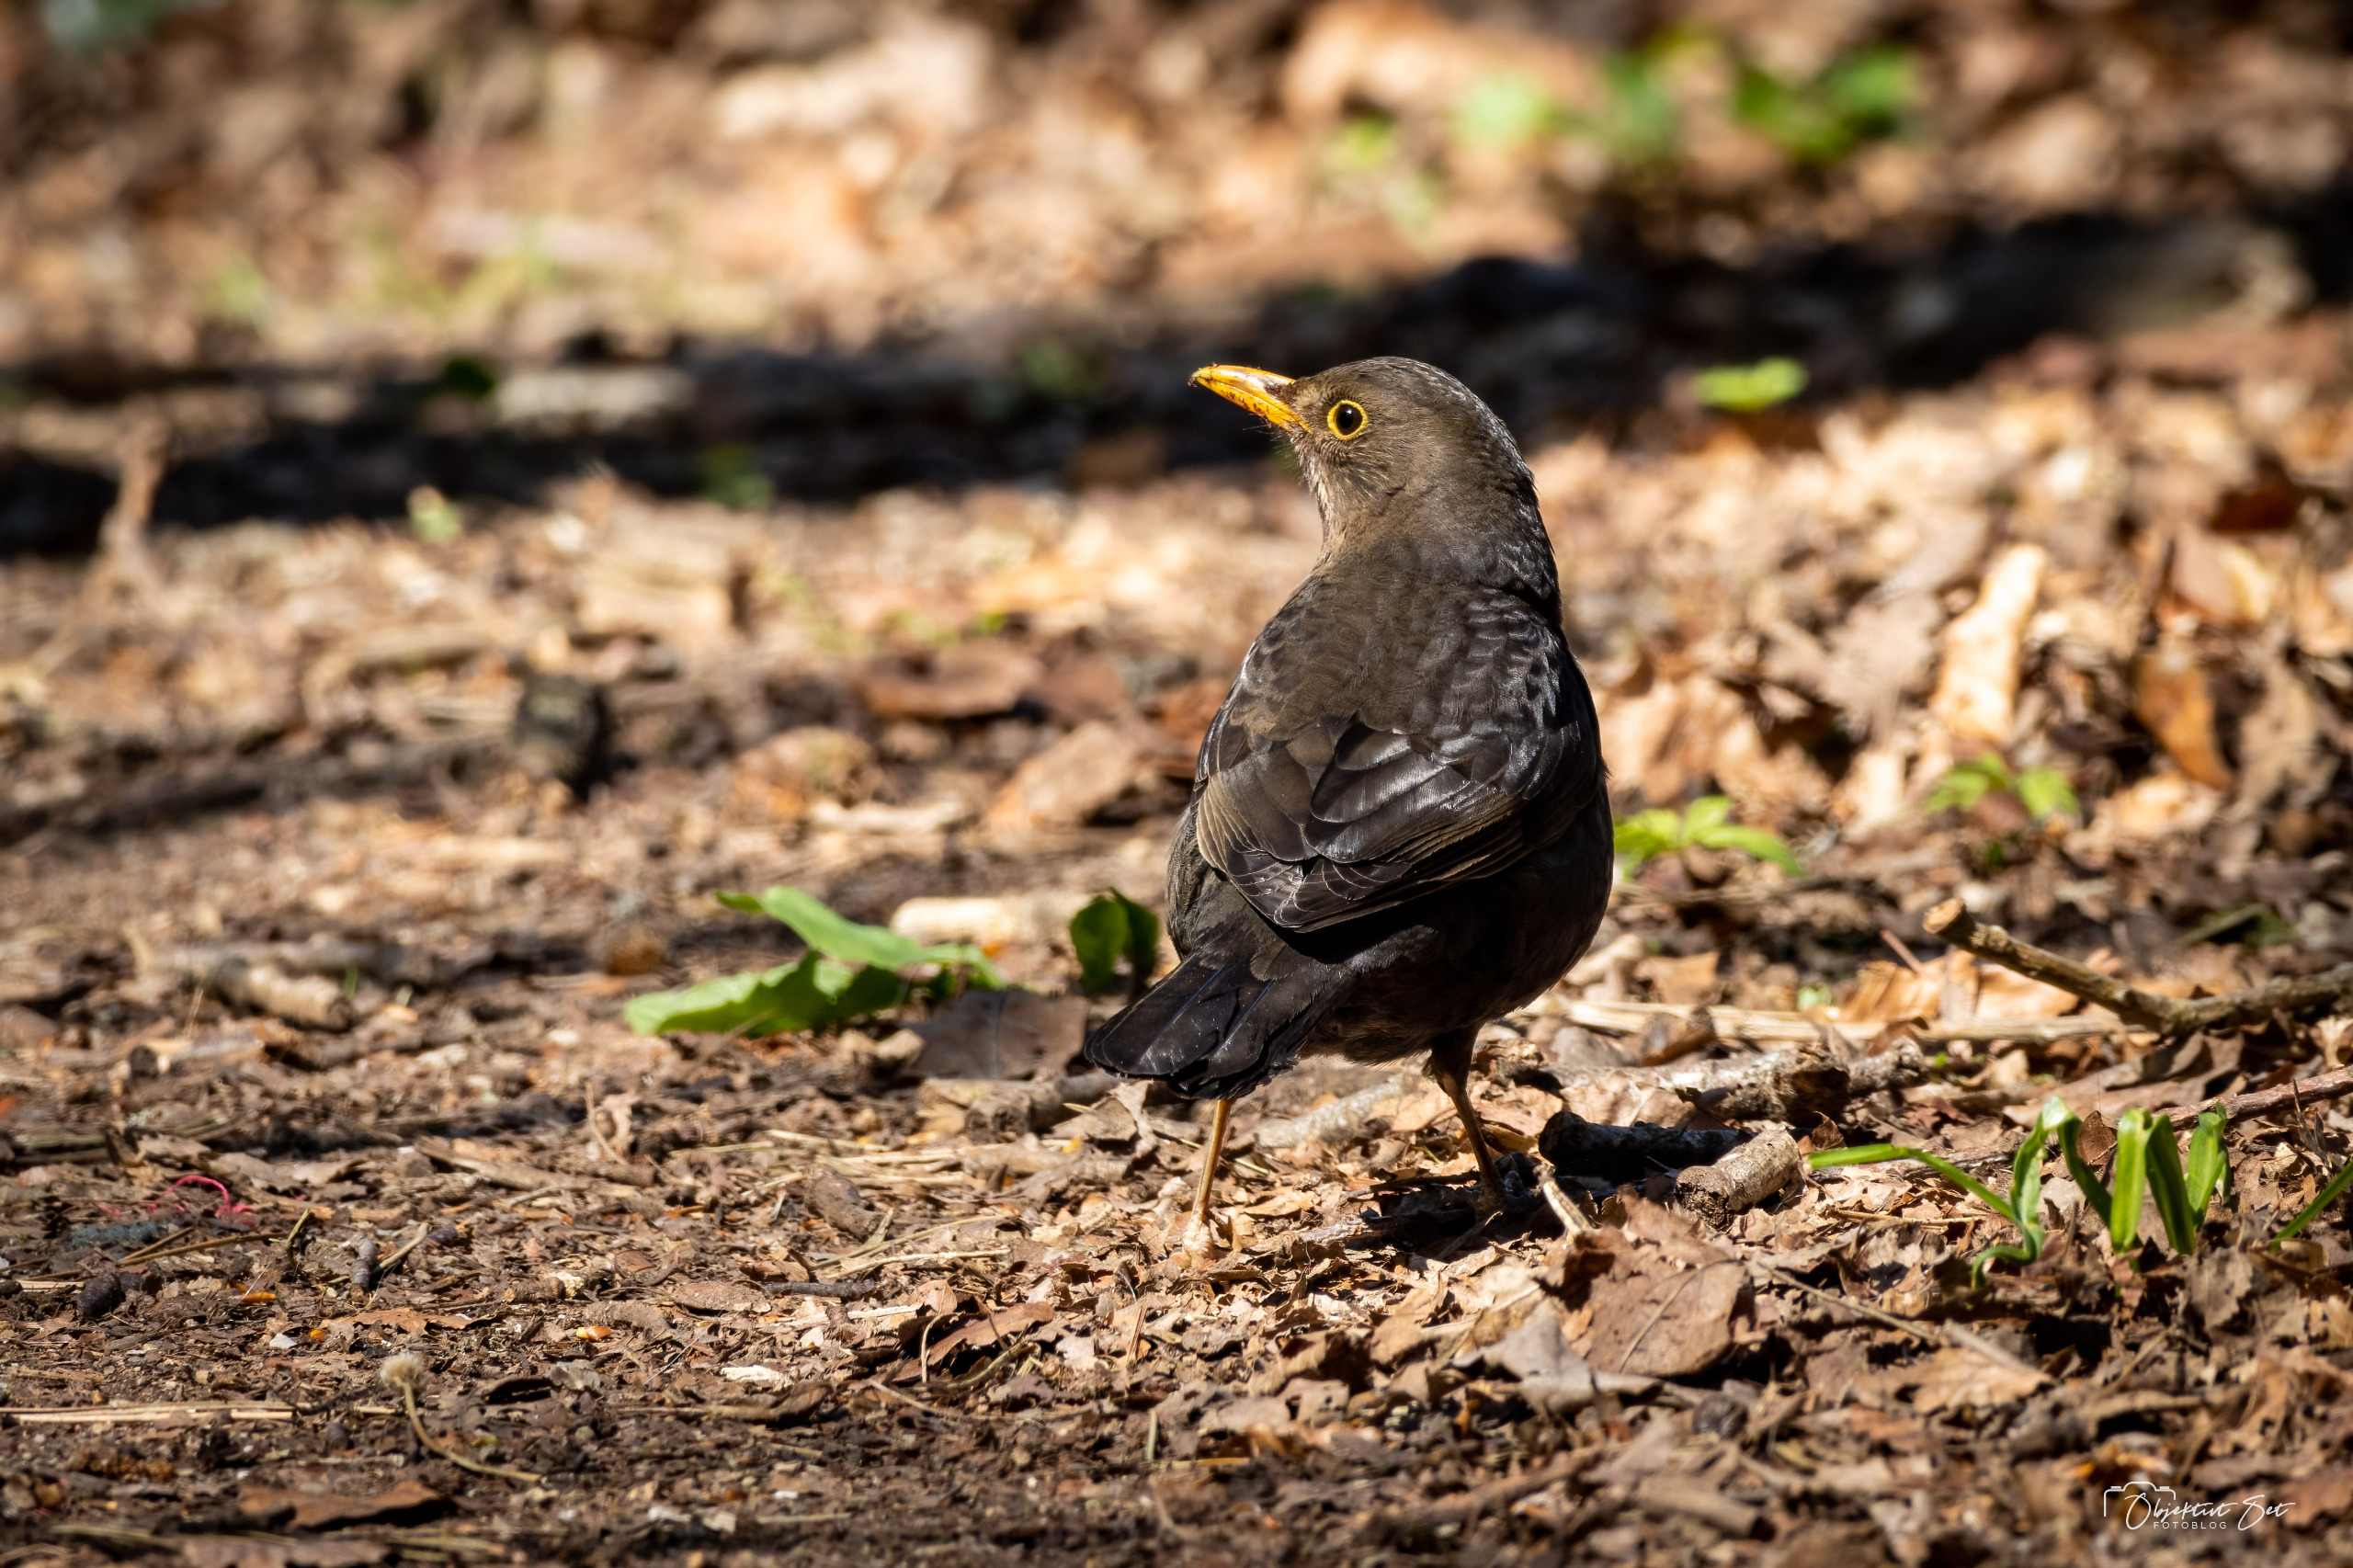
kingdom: Animalia
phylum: Chordata
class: Aves
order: Passeriformes
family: Turdidae
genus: Turdus
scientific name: Turdus merula
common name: Solsort
